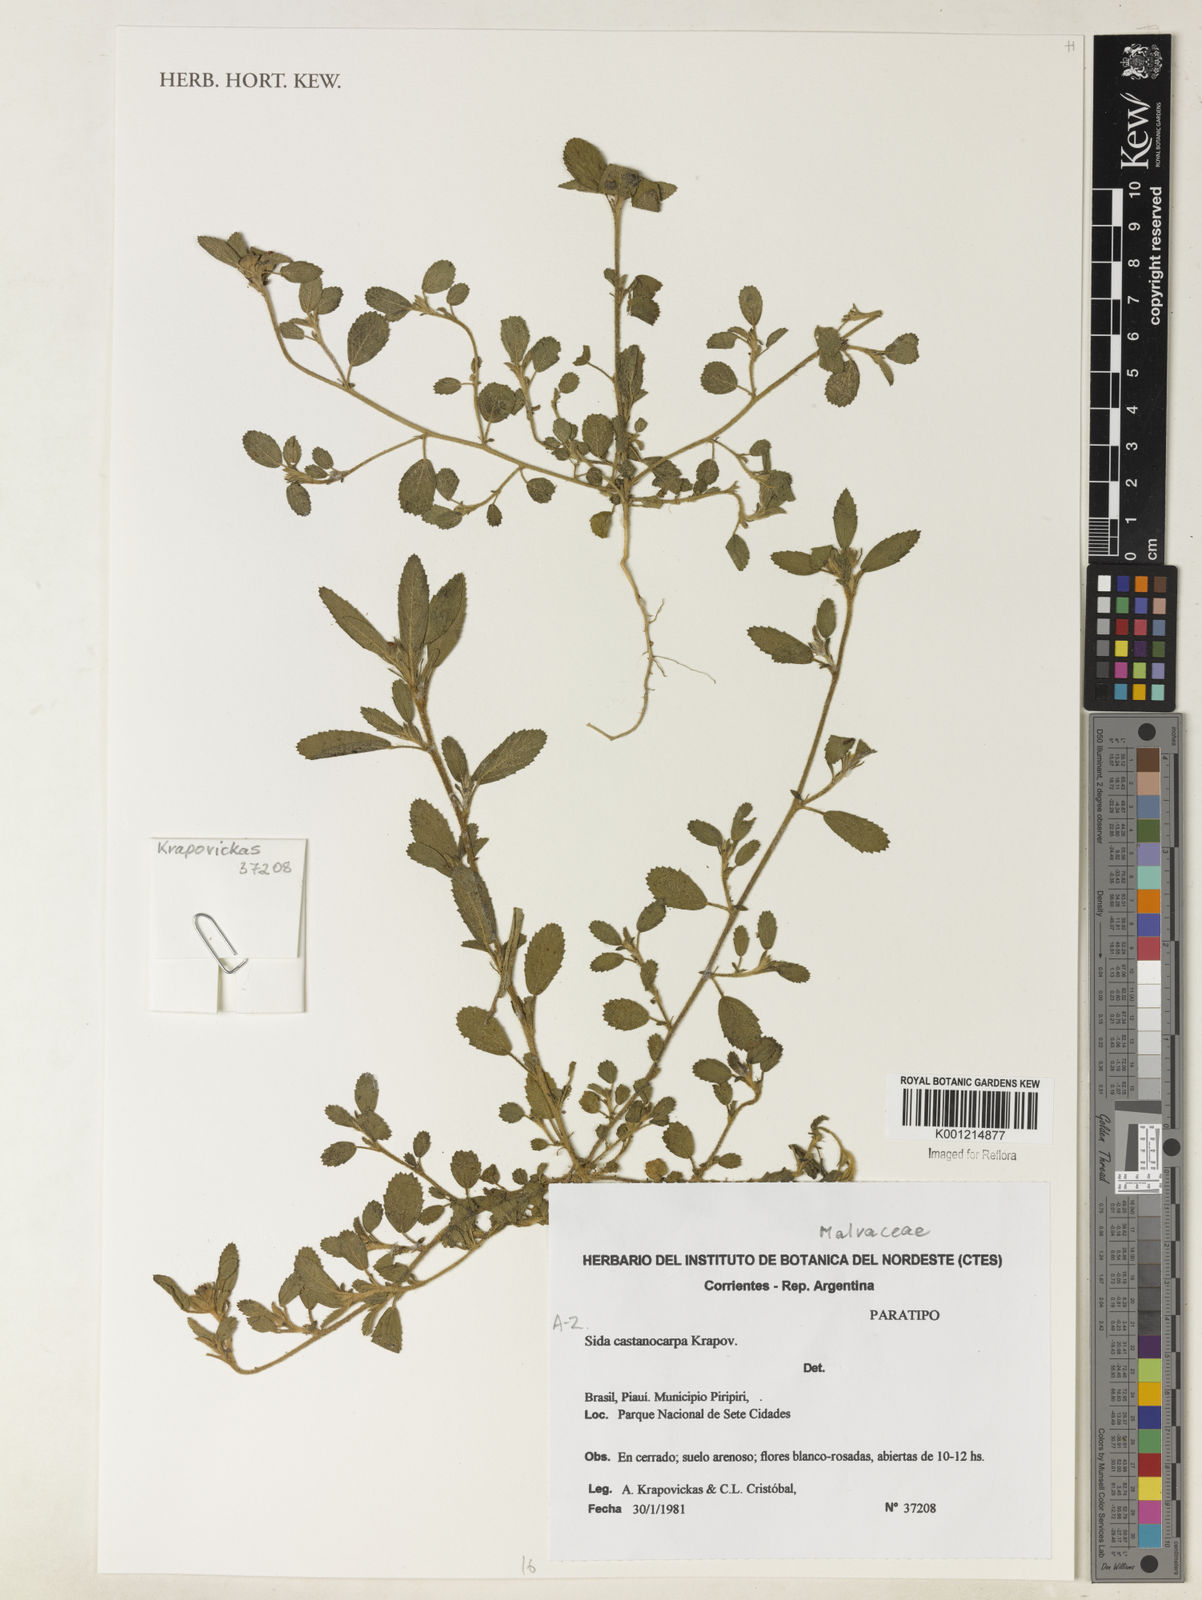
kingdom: Plantae
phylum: Tracheophyta
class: Magnoliopsida
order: Malvales
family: Malvaceae
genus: Sida
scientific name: Sida castanocarpa
